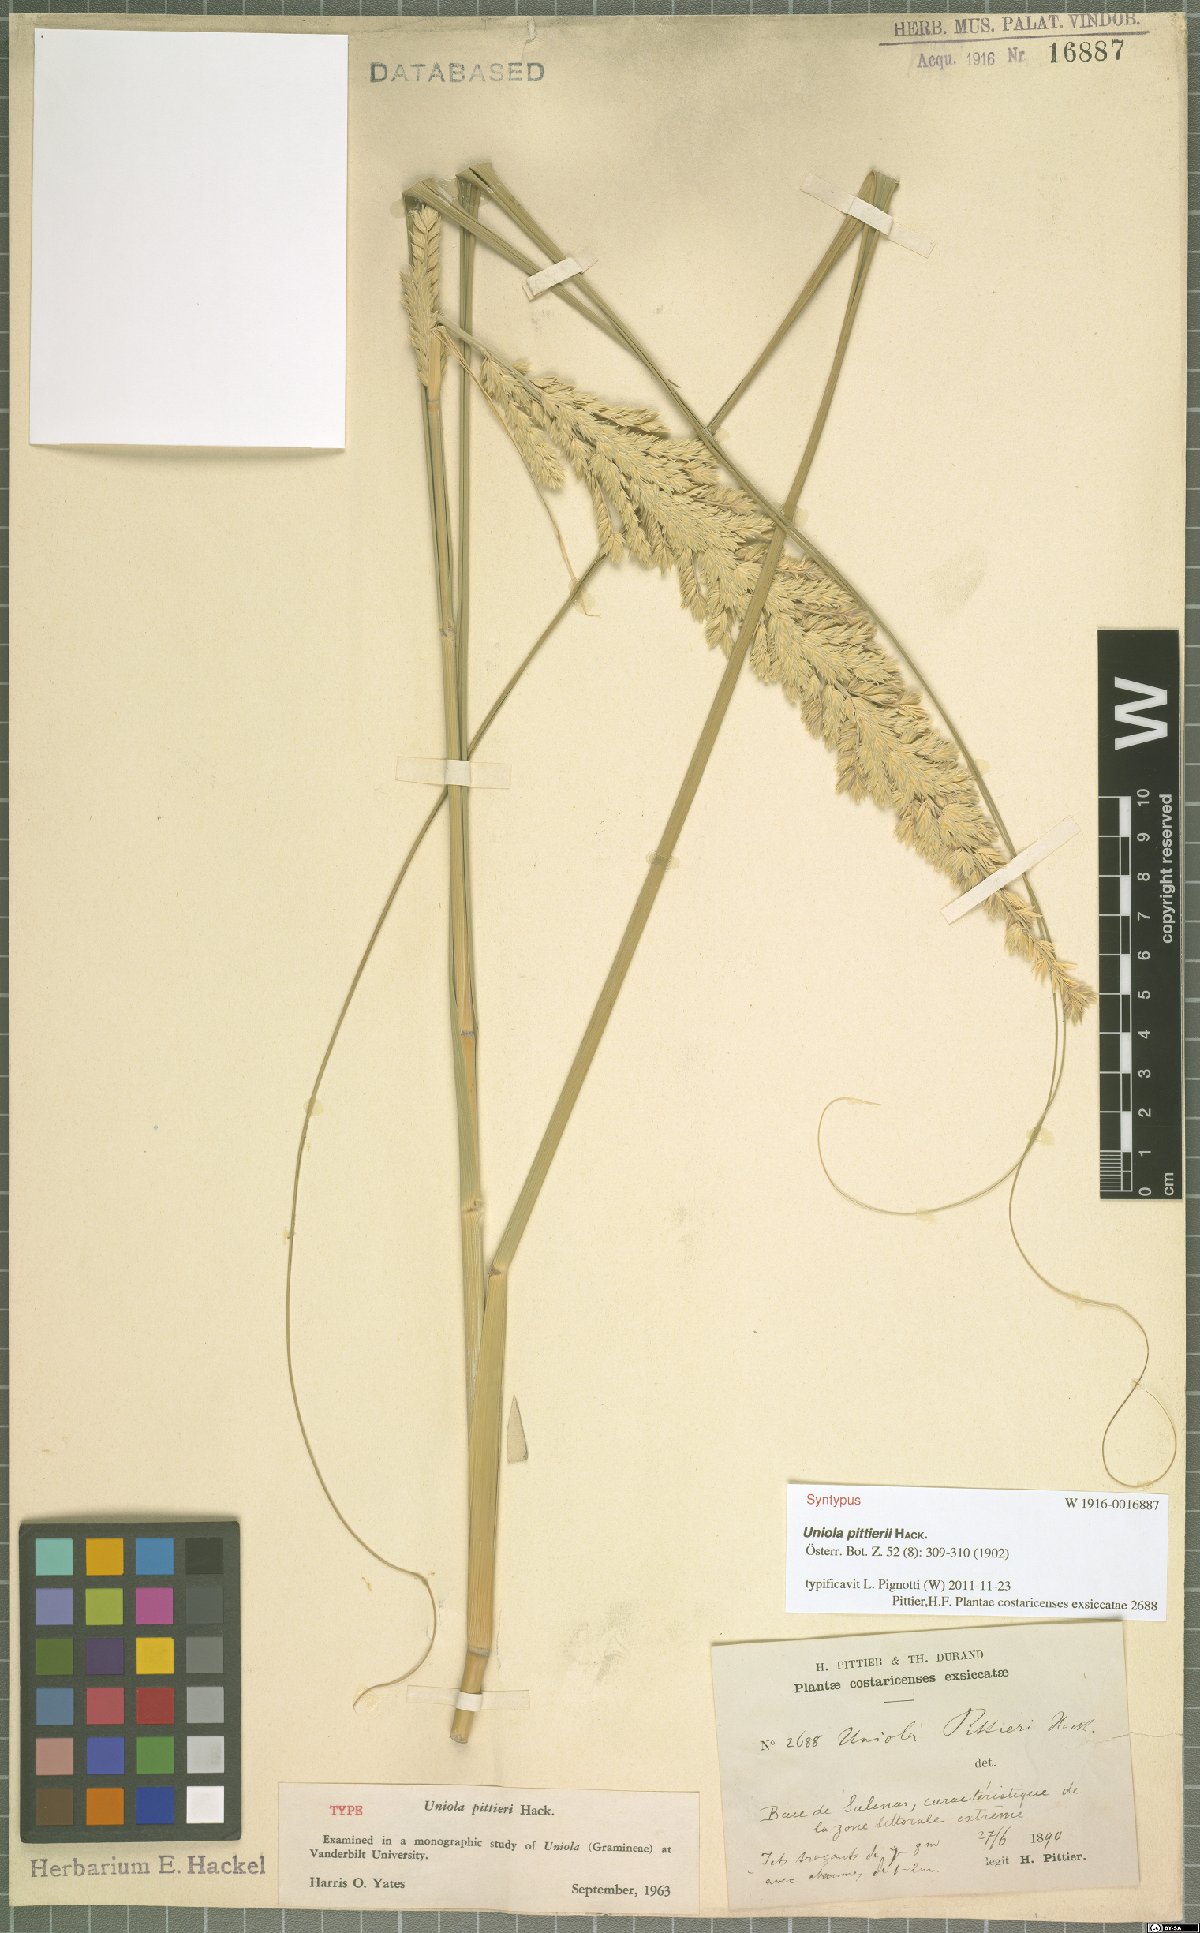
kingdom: Plantae
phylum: Tracheophyta
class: Liliopsida
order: Poales
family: Poaceae
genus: Uniola
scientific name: Uniola pittieri
